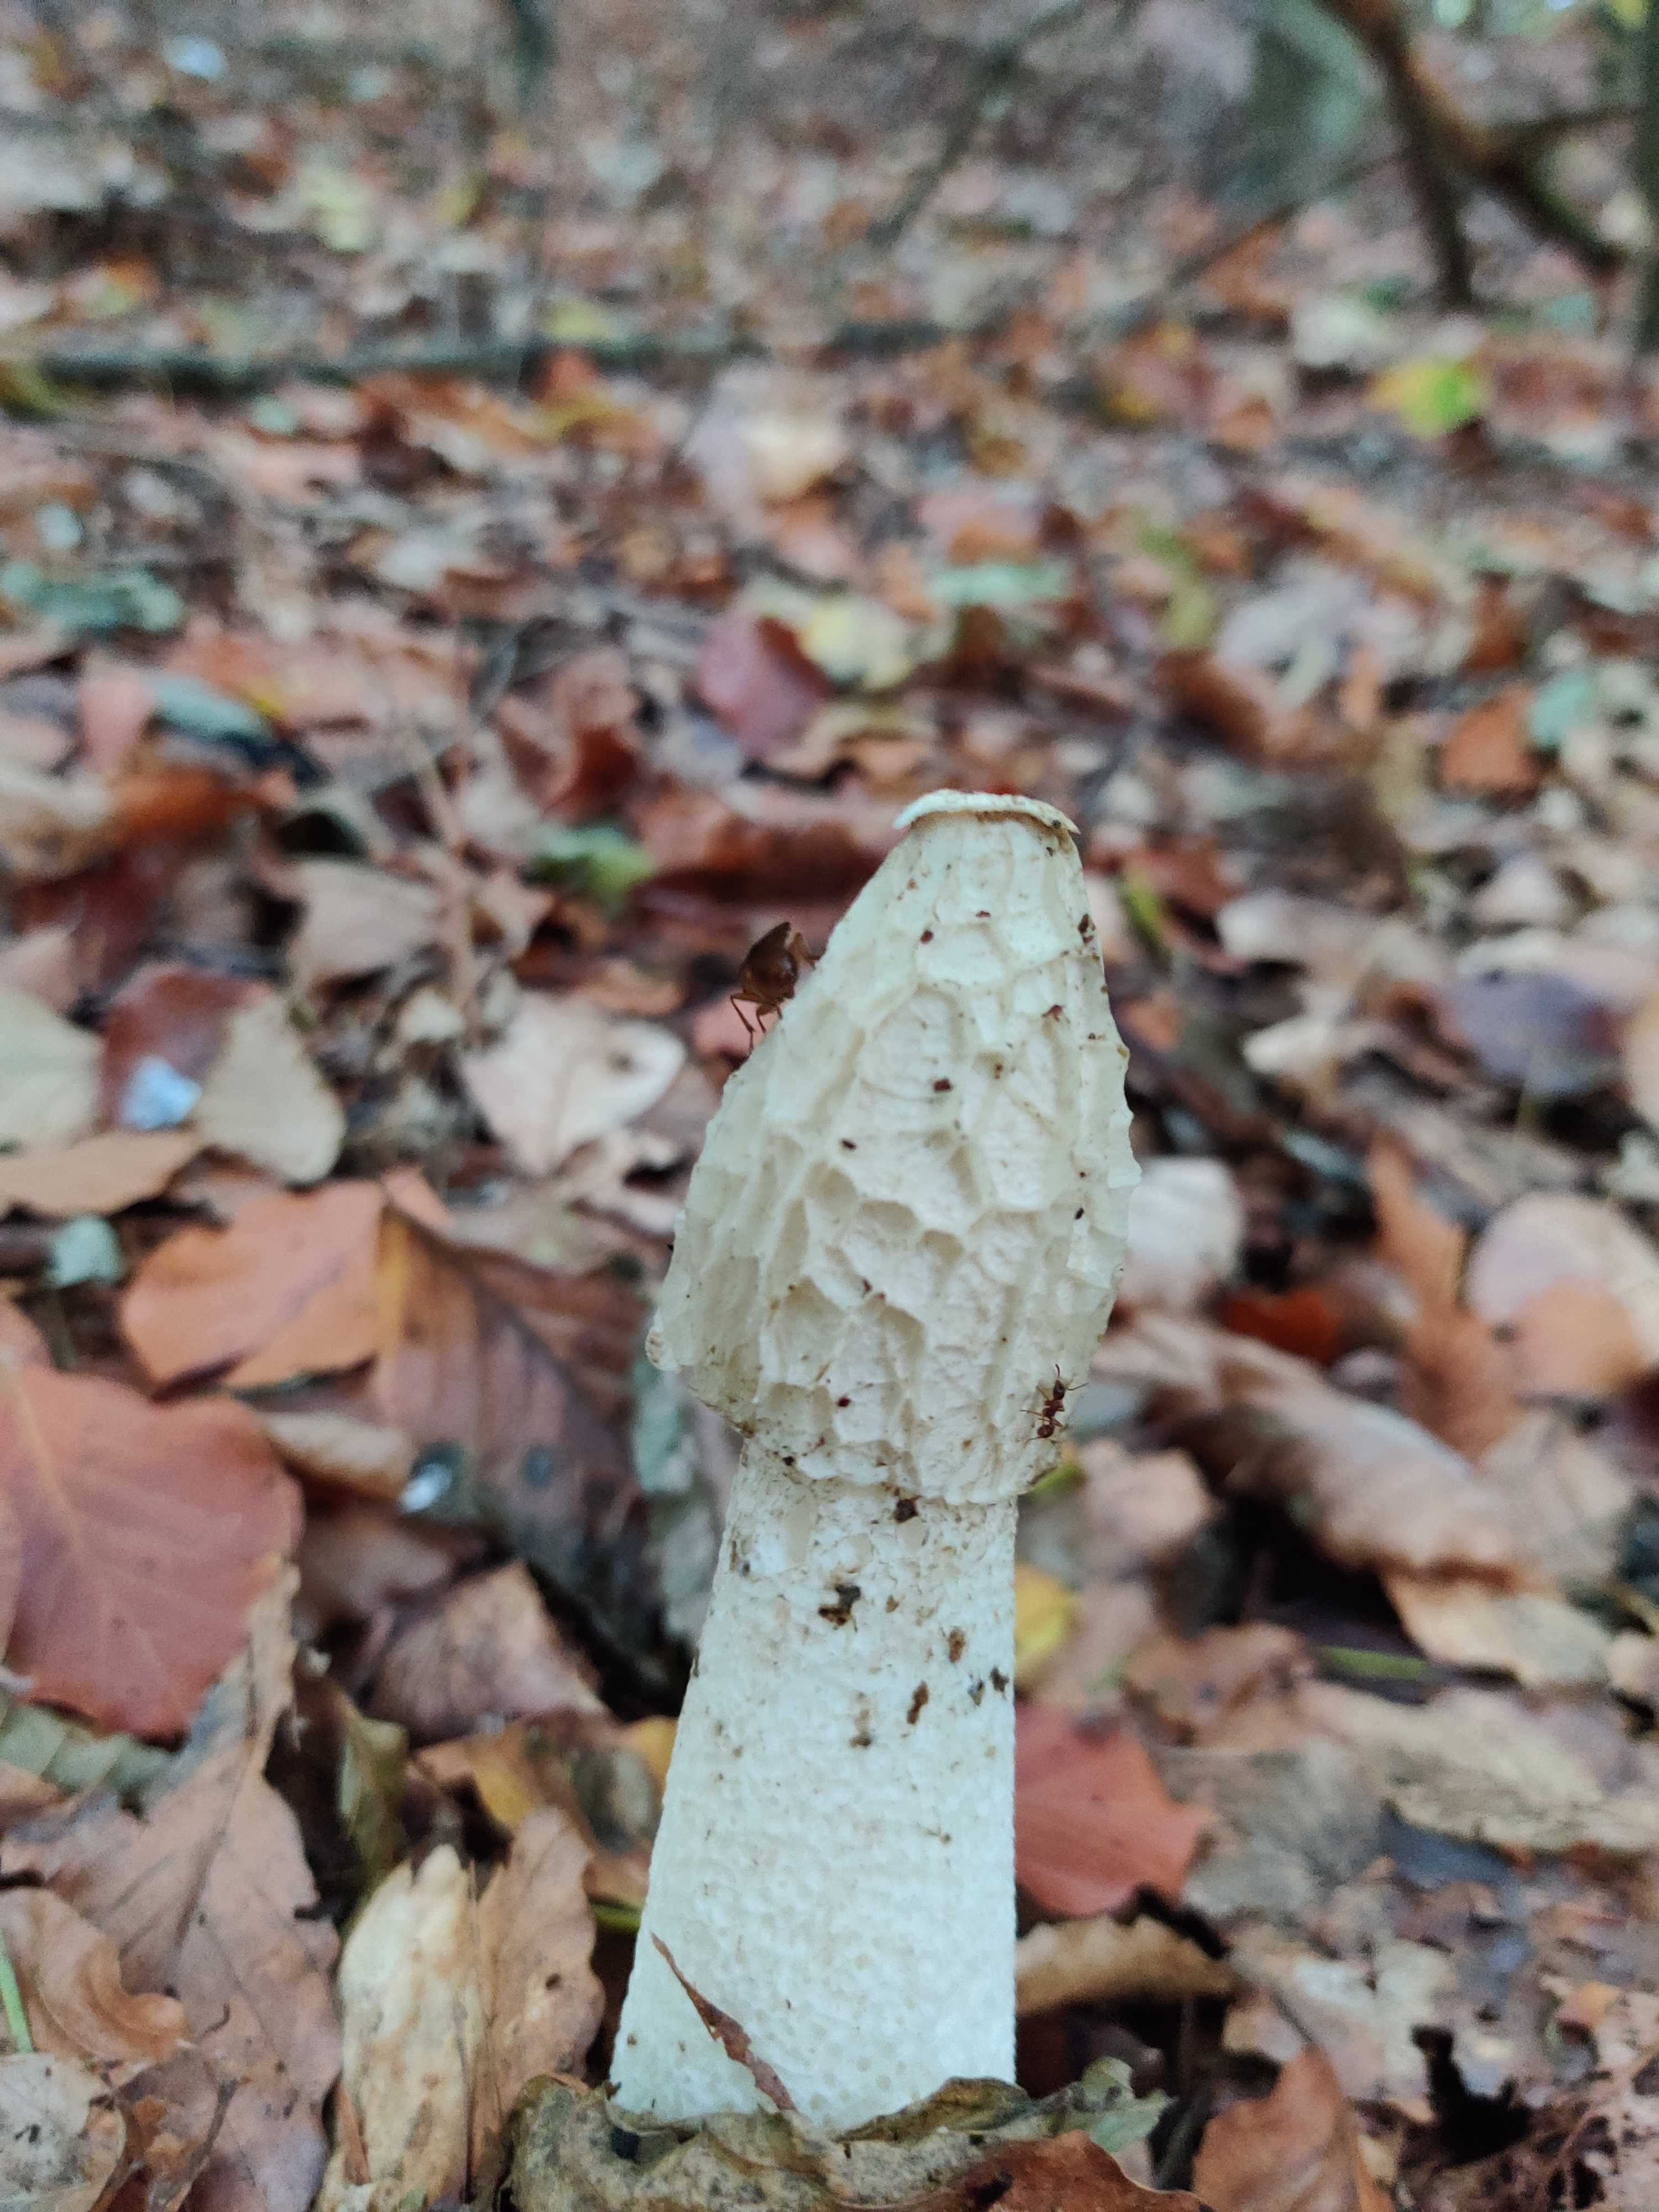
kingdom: Fungi
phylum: Basidiomycota
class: Agaricomycetes
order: Phallales
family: Phallaceae
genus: Phallus
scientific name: Phallus impudicus
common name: almindelig stinksvamp
